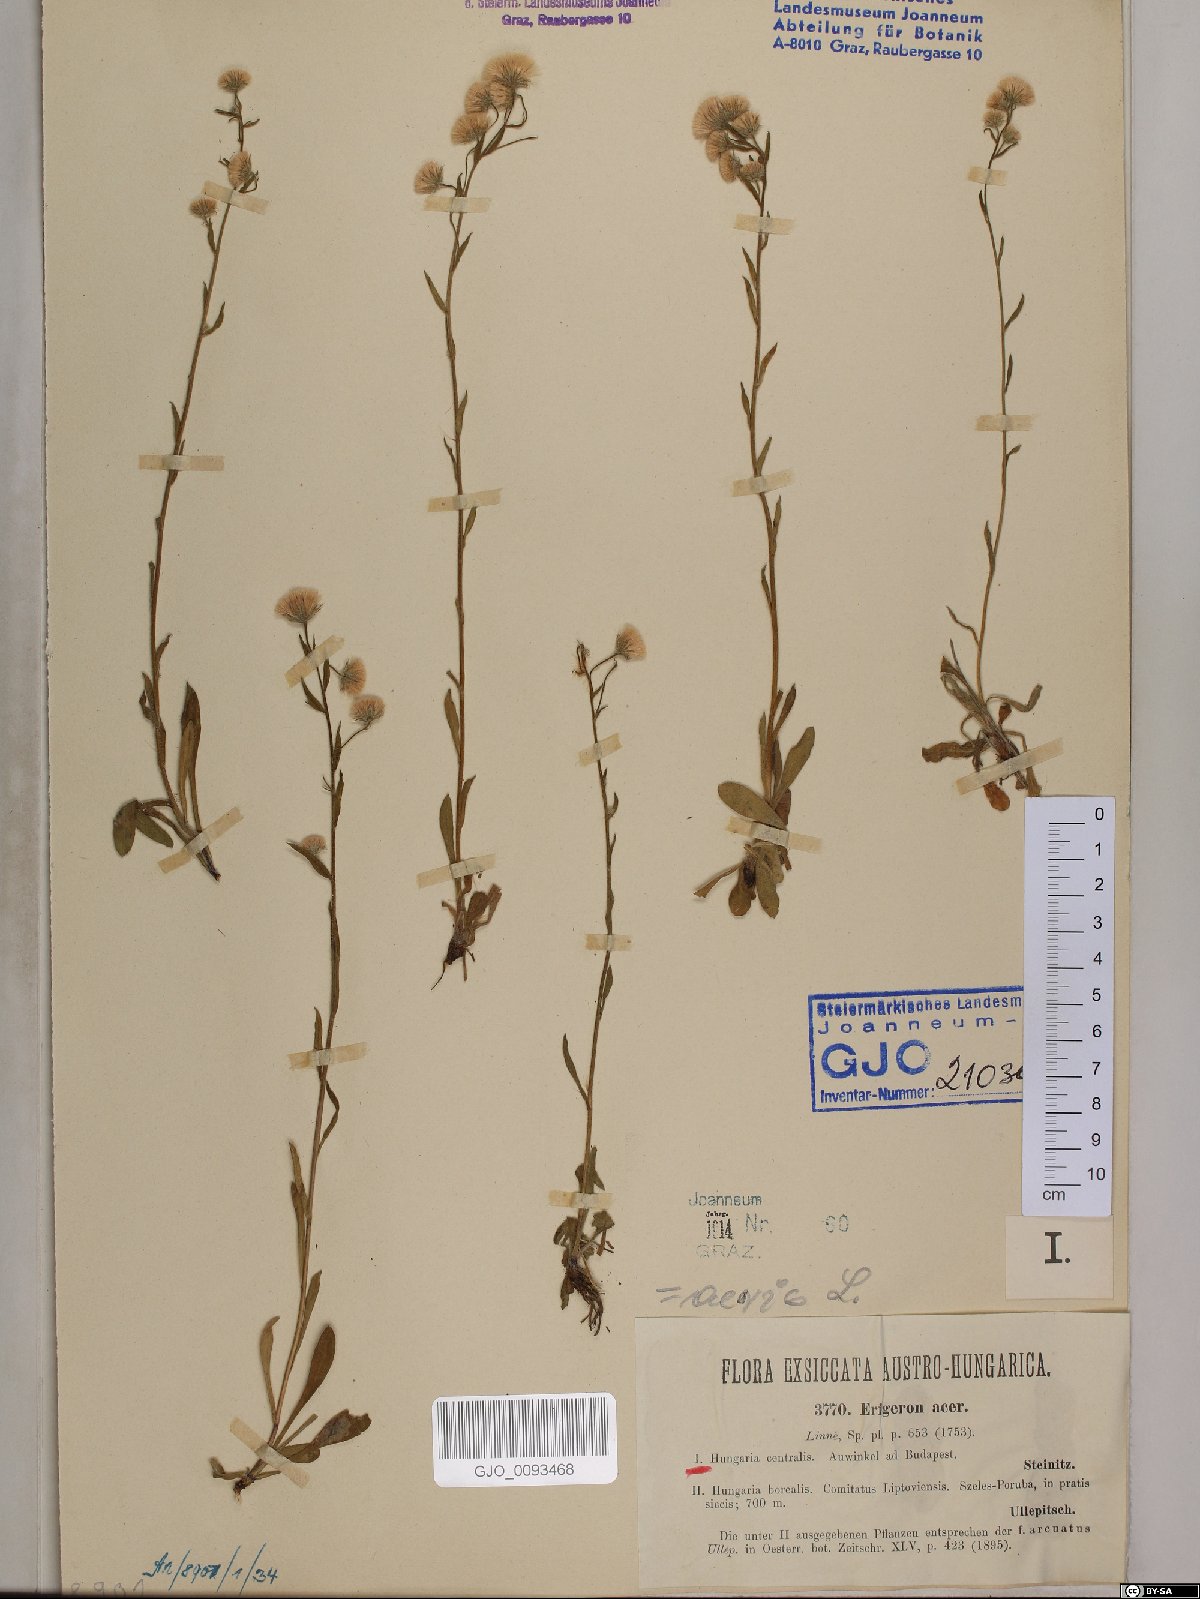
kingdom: Plantae
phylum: Tracheophyta
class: Magnoliopsida
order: Asterales
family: Asteraceae
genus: Erigeron
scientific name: Erigeron acris
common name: Blue fleabane
